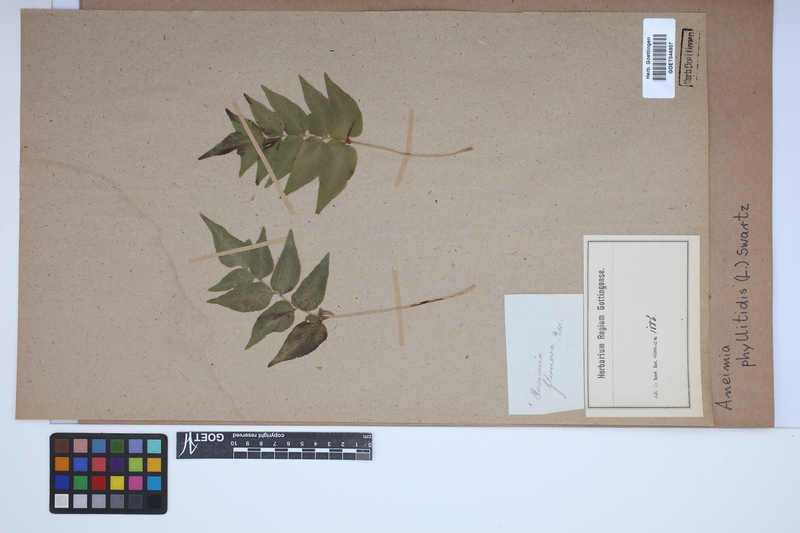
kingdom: Plantae
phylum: Tracheophyta
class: Polypodiopsida
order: Schizaeales
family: Anemiaceae
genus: Anemia
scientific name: Anemia phyllitidis
